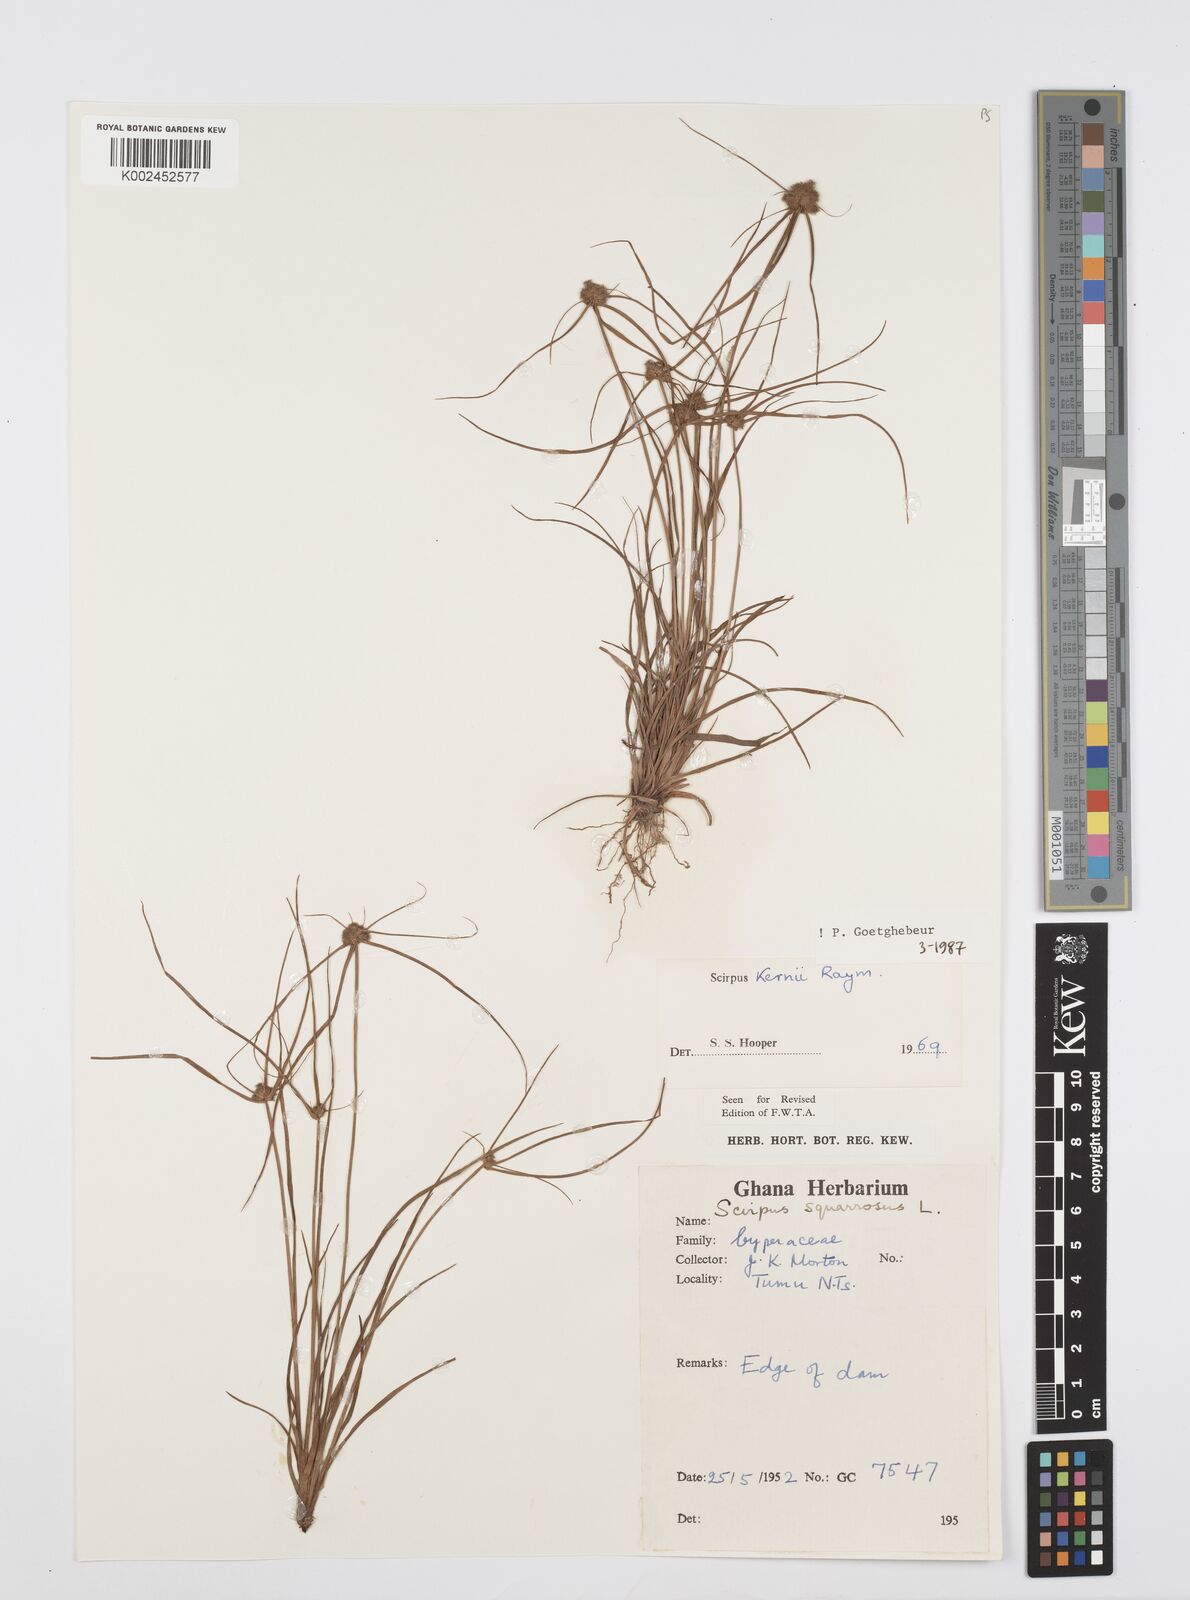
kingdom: Plantae
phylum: Tracheophyta
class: Liliopsida
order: Poales
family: Cyperaceae
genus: Cyperus
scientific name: Cyperus kernii
